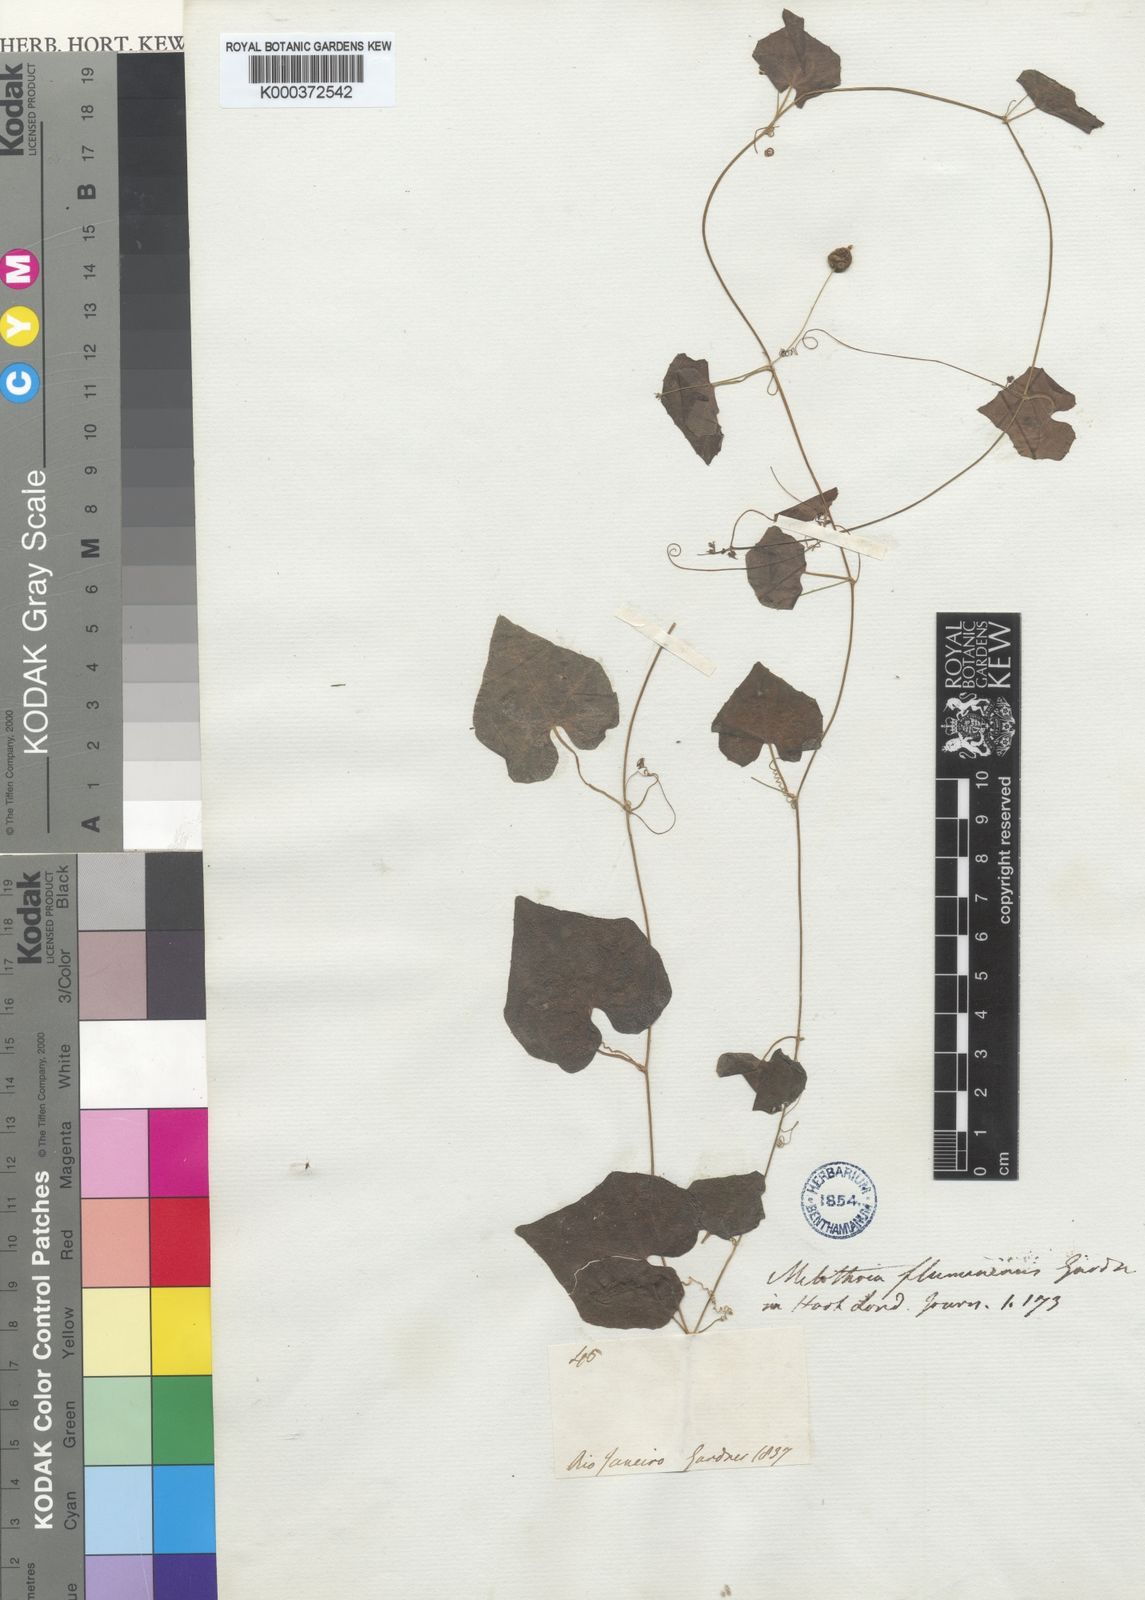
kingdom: Plantae
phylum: Tracheophyta
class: Magnoliopsida
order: Cucurbitales
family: Cucurbitaceae
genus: Melothria
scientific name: Melothria pendula
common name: Creeping-cucumber
